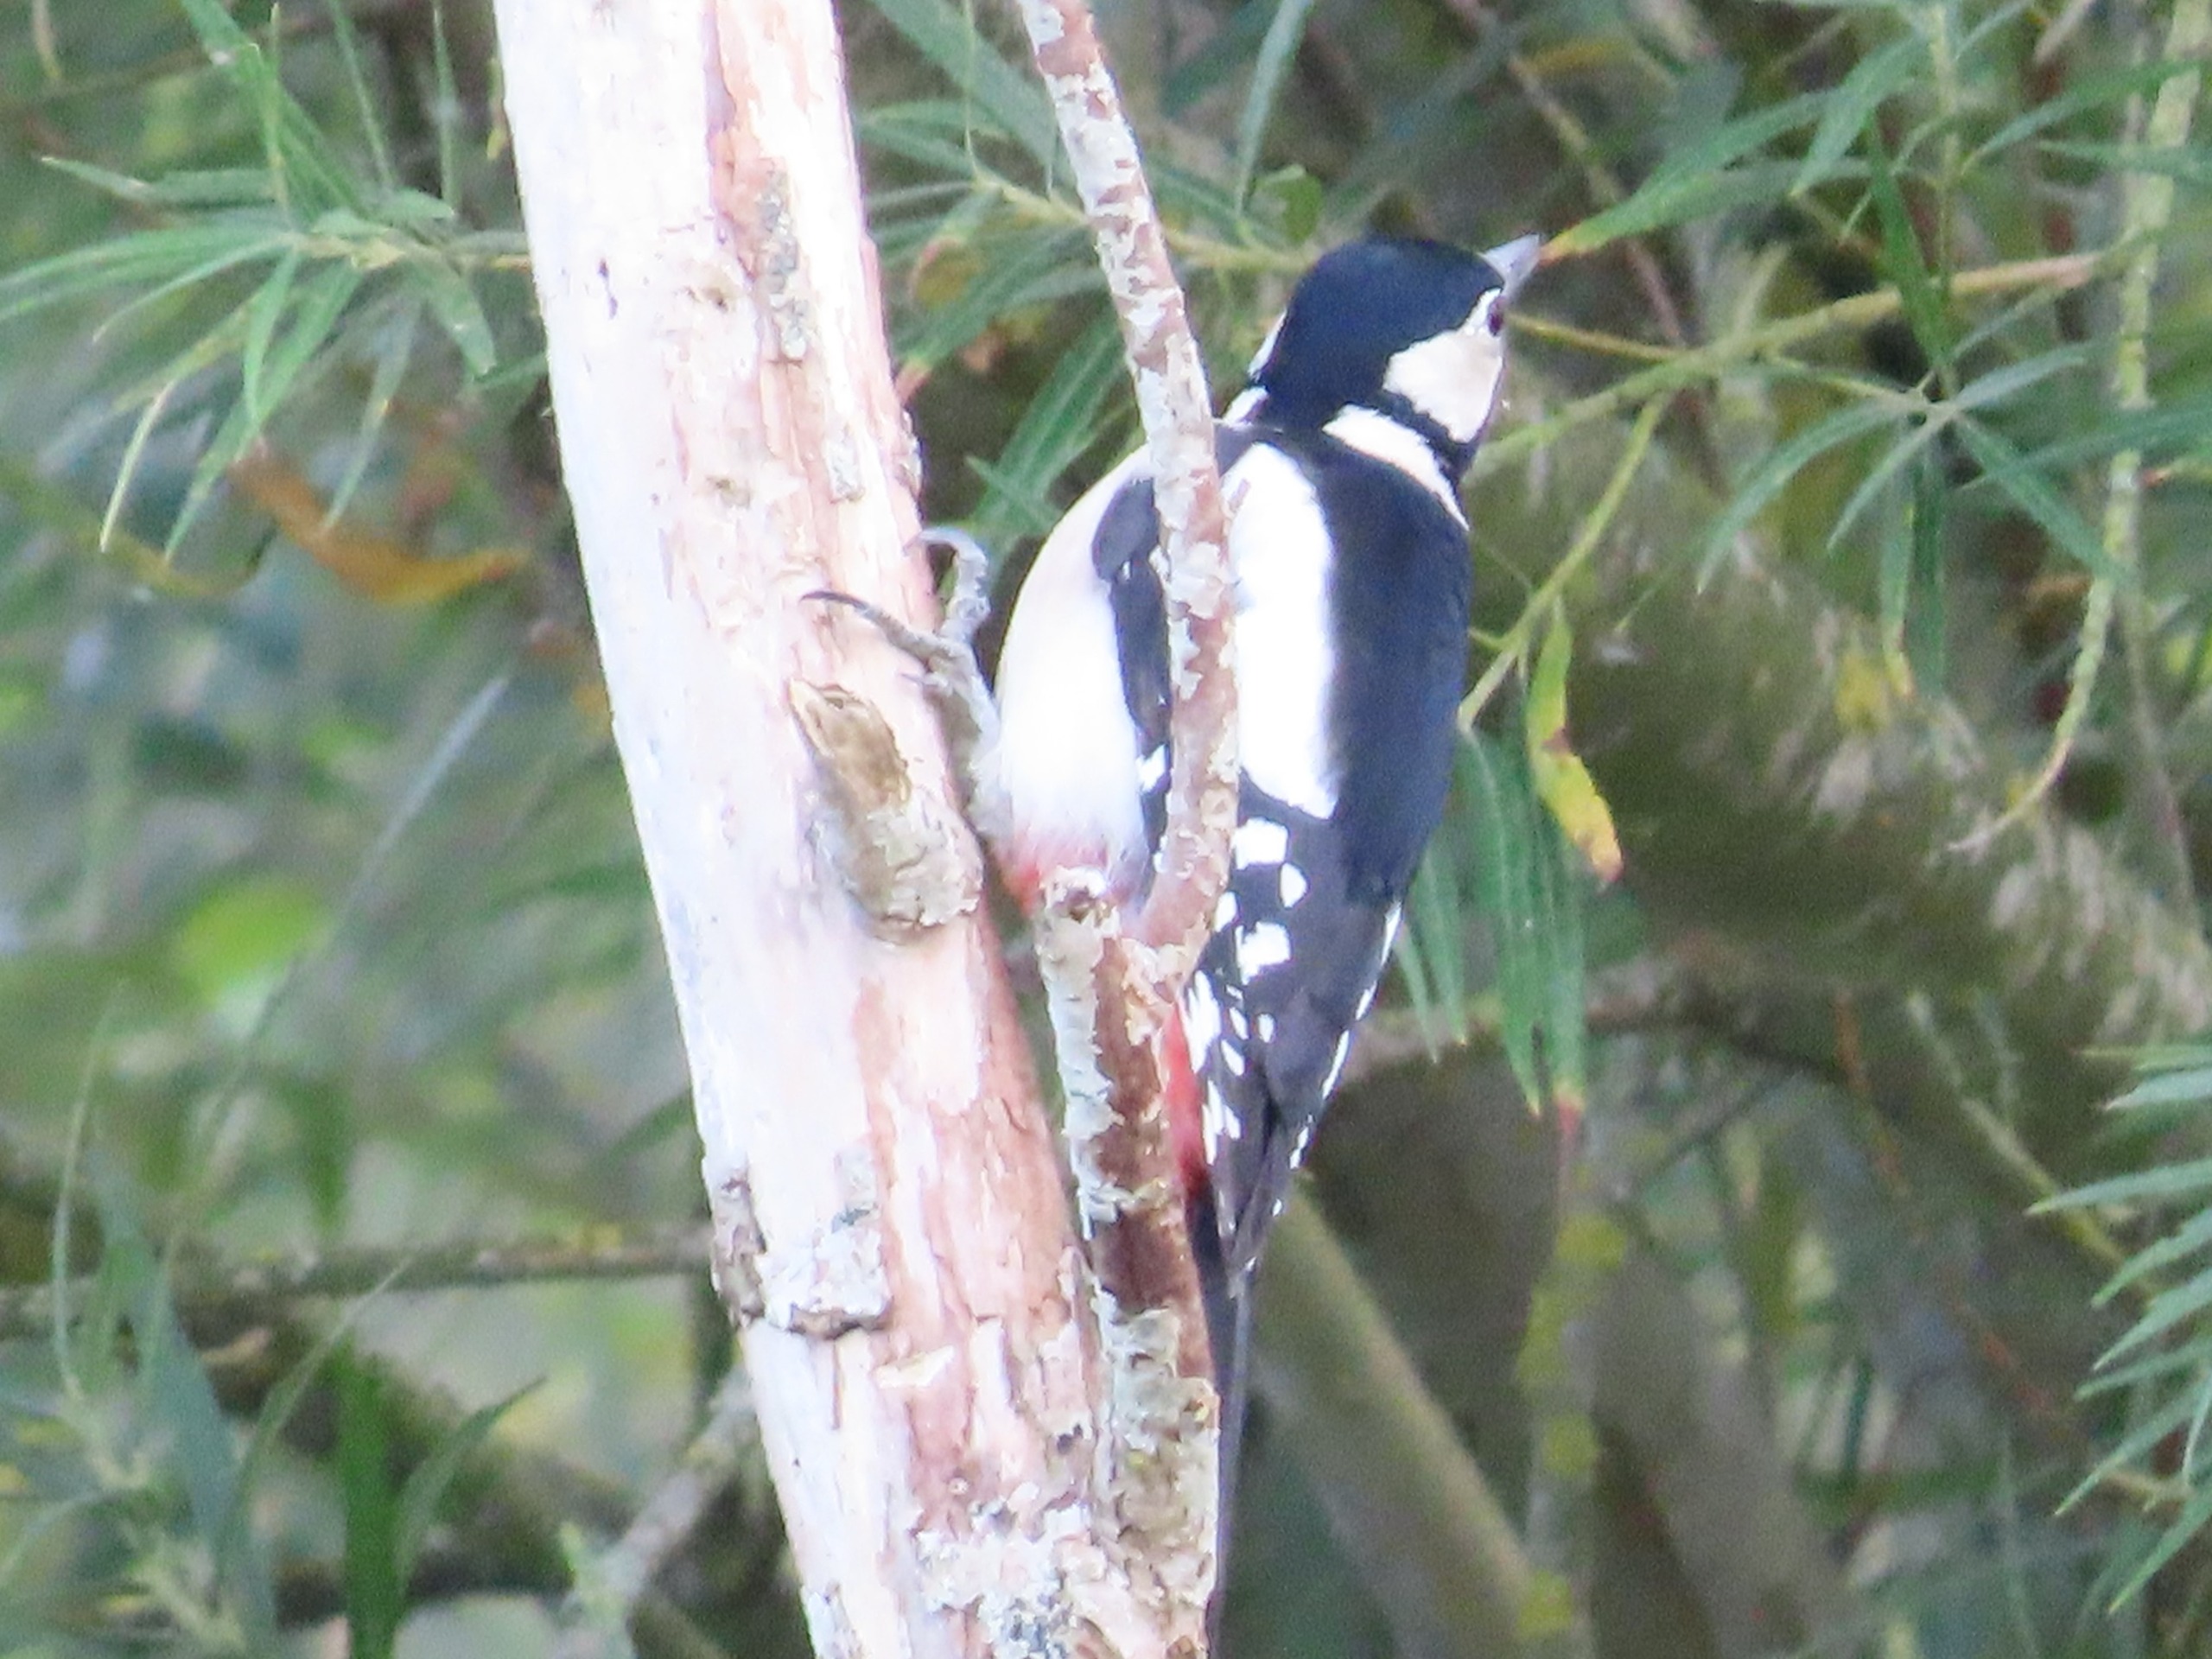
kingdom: Animalia
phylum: Chordata
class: Aves
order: Piciformes
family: Picidae
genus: Dendrocopos
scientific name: Dendrocopos major
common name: Stor flagspætte
